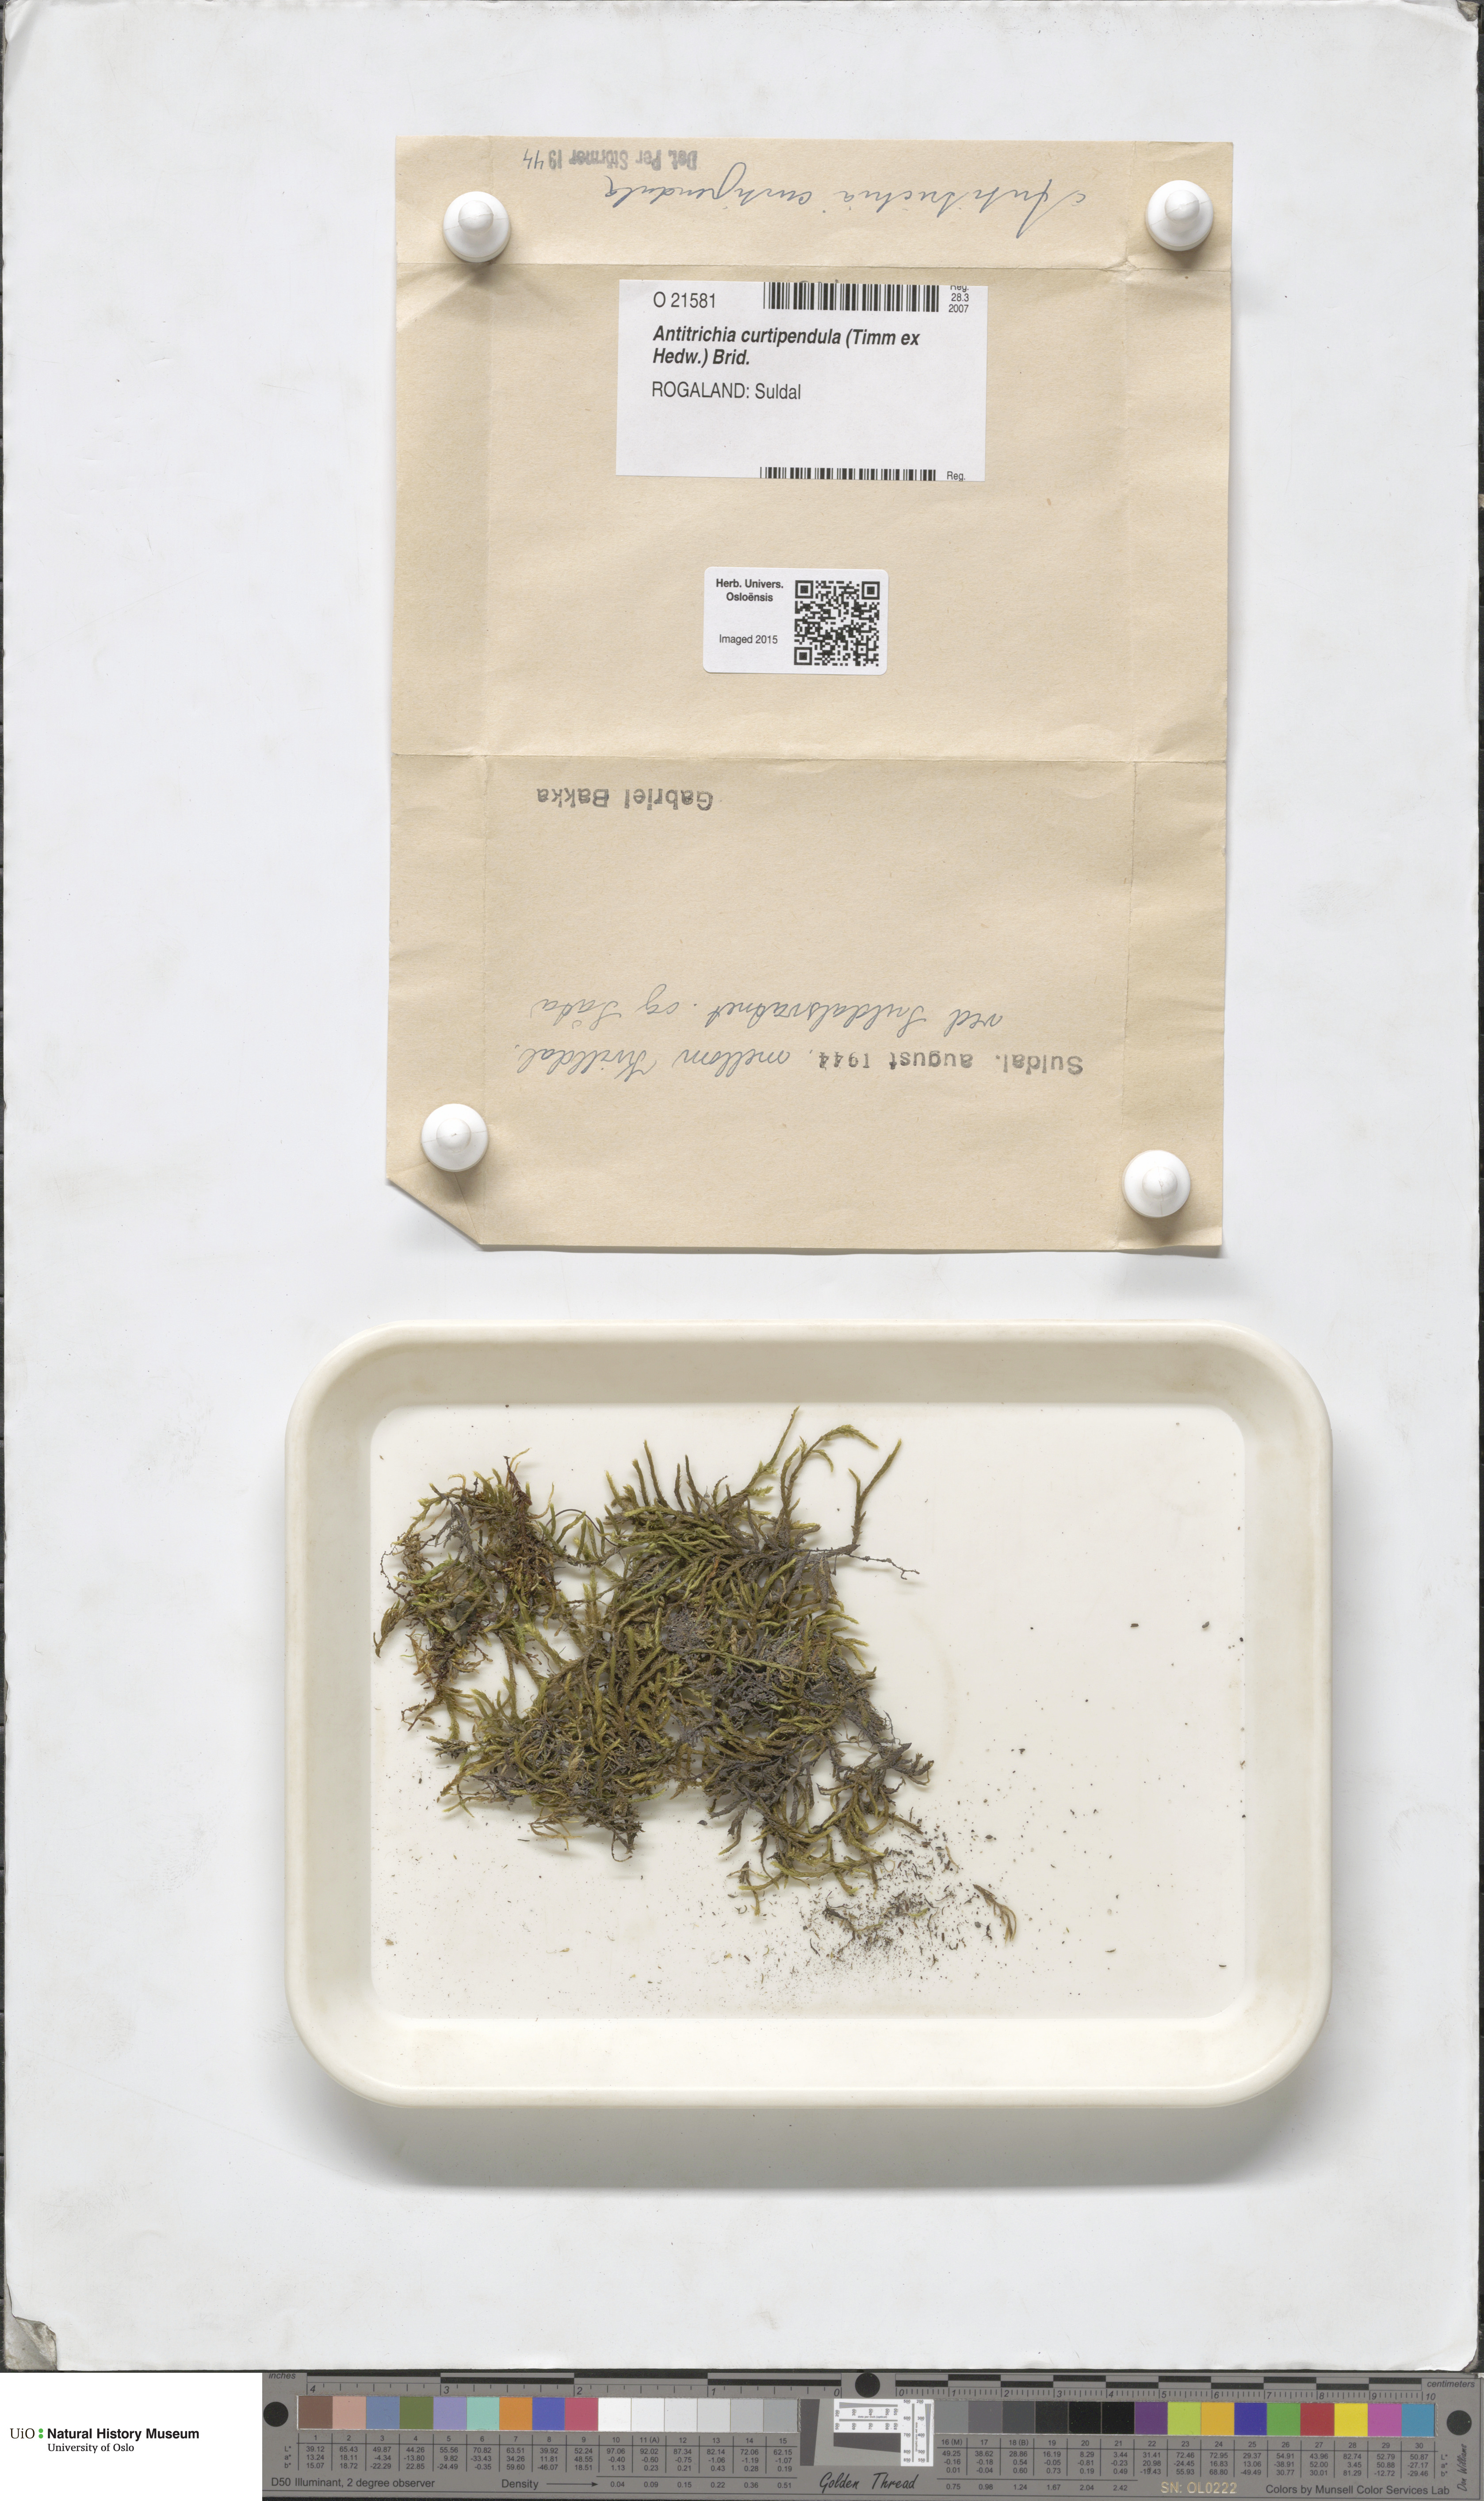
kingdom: Plantae
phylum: Bryophyta
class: Bryopsida
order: Hypnales
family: Antitrichiaceae
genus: Antitrichia
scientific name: Antitrichia curtipendula
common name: Pendulous wing-moss
